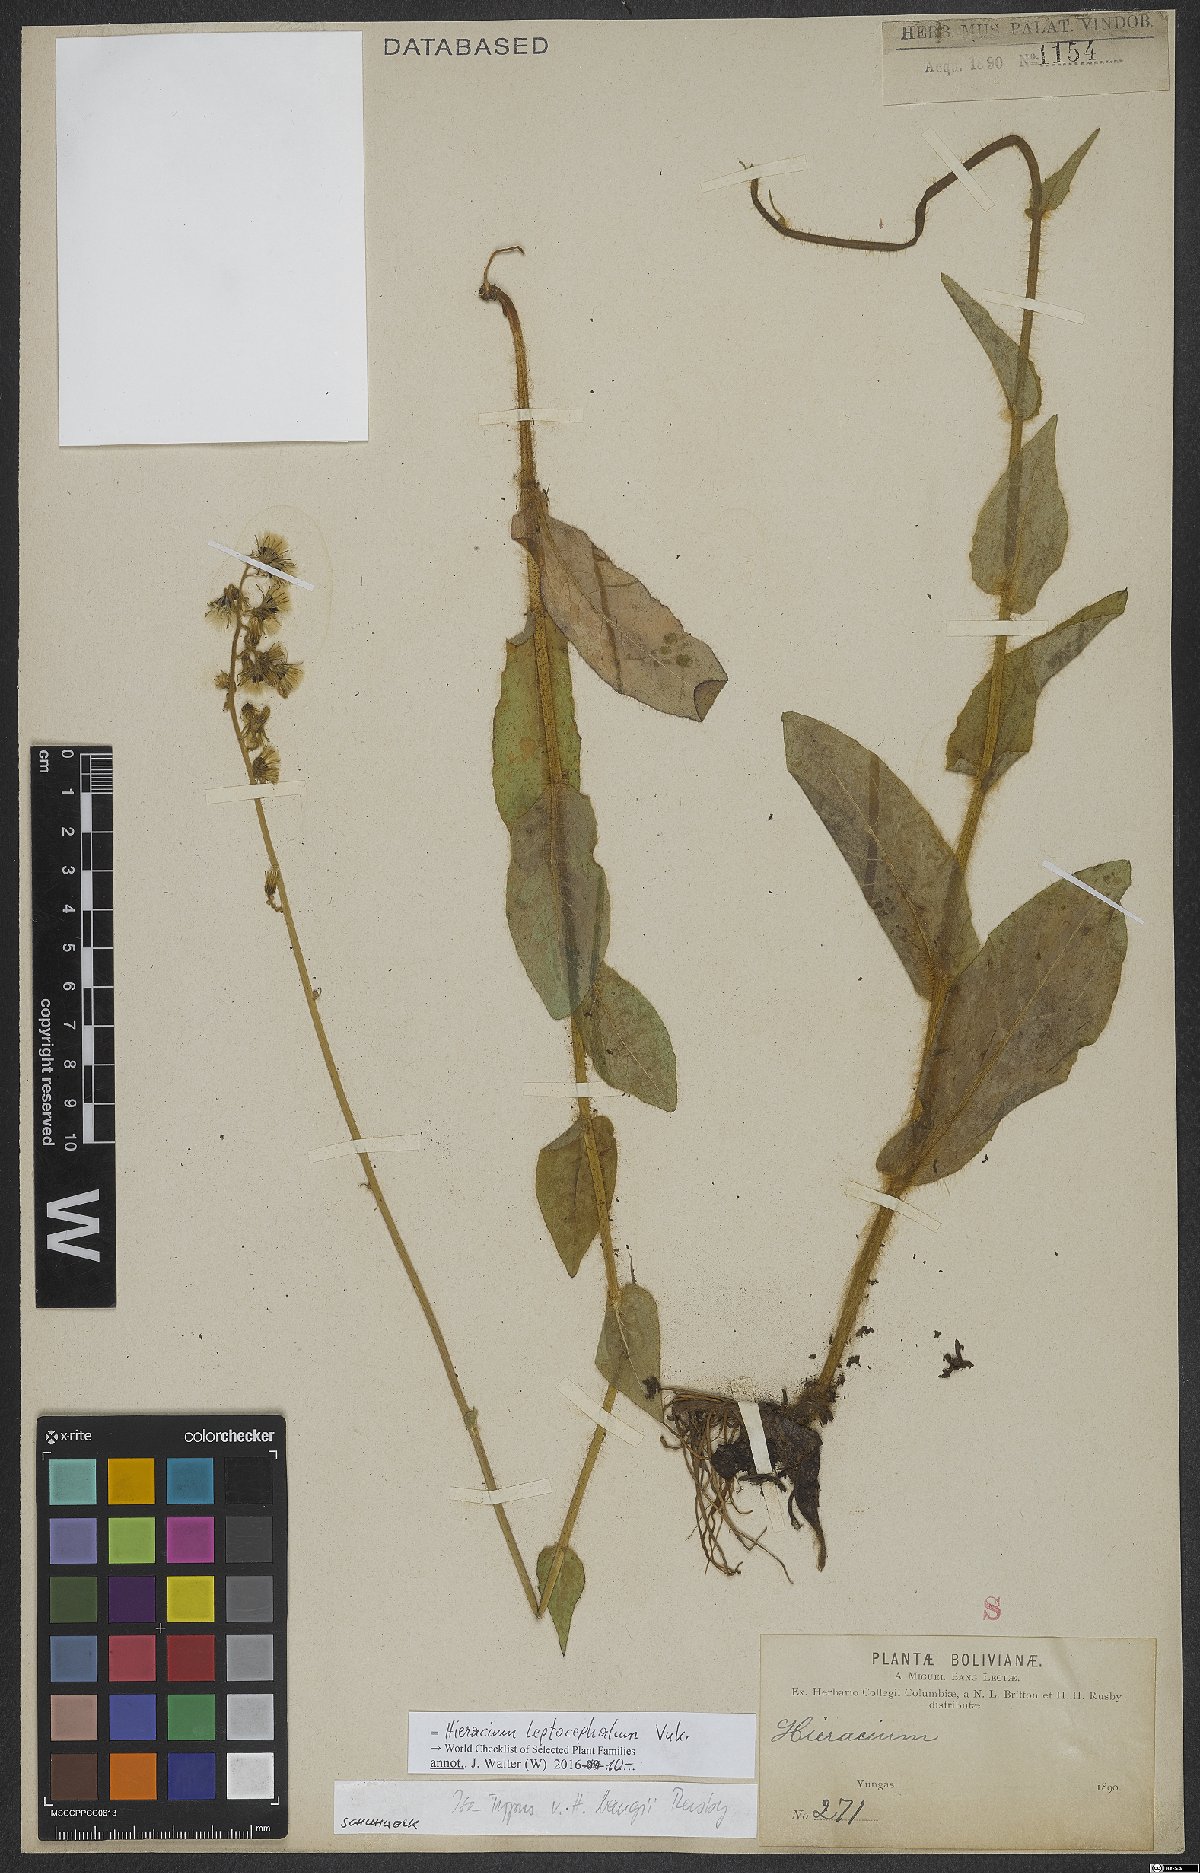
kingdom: Plantae
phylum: Tracheophyta
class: Magnoliopsida
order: Asterales
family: Asteraceae
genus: Hieracium
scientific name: Hieracium leptocephalum
